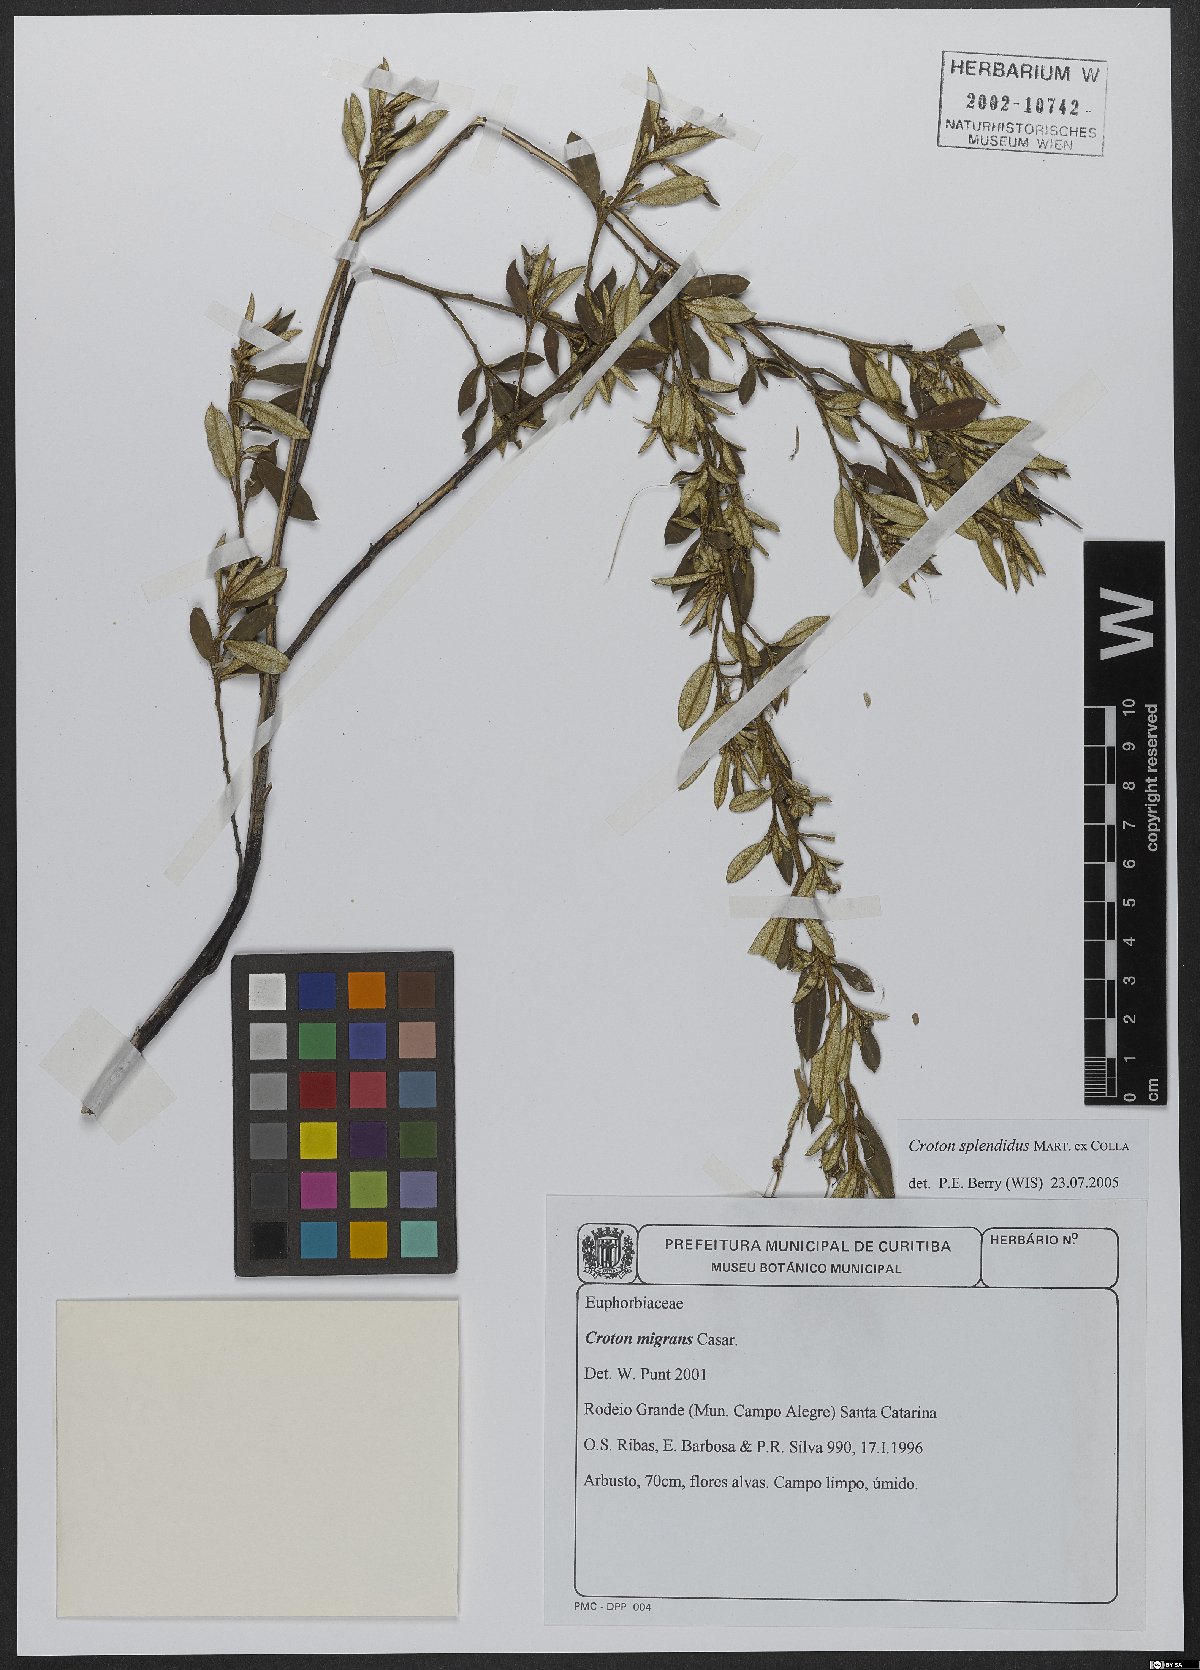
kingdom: Plantae
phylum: Tracheophyta
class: Magnoliopsida
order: Malpighiales
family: Euphorbiaceae
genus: Croton
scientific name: Croton splendidus
